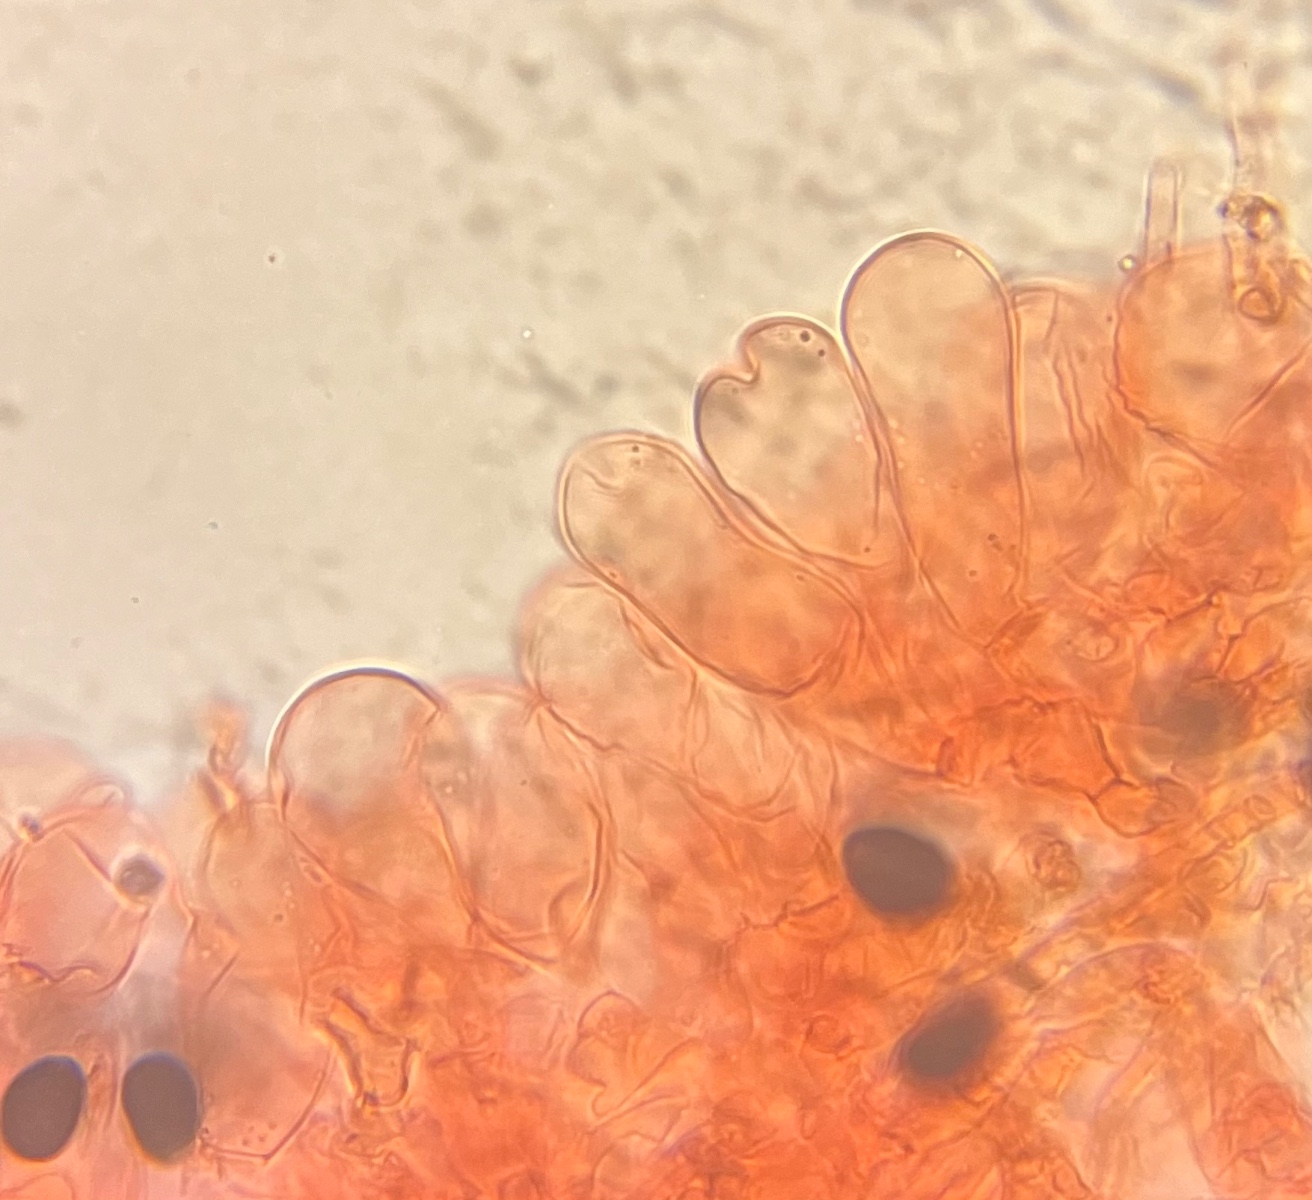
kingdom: Fungi
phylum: Basidiomycota
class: Agaricomycetes
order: Agaricales
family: Psathyrellaceae
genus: Parasola
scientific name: Parasola plicatilis
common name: plæne-hjulhat
